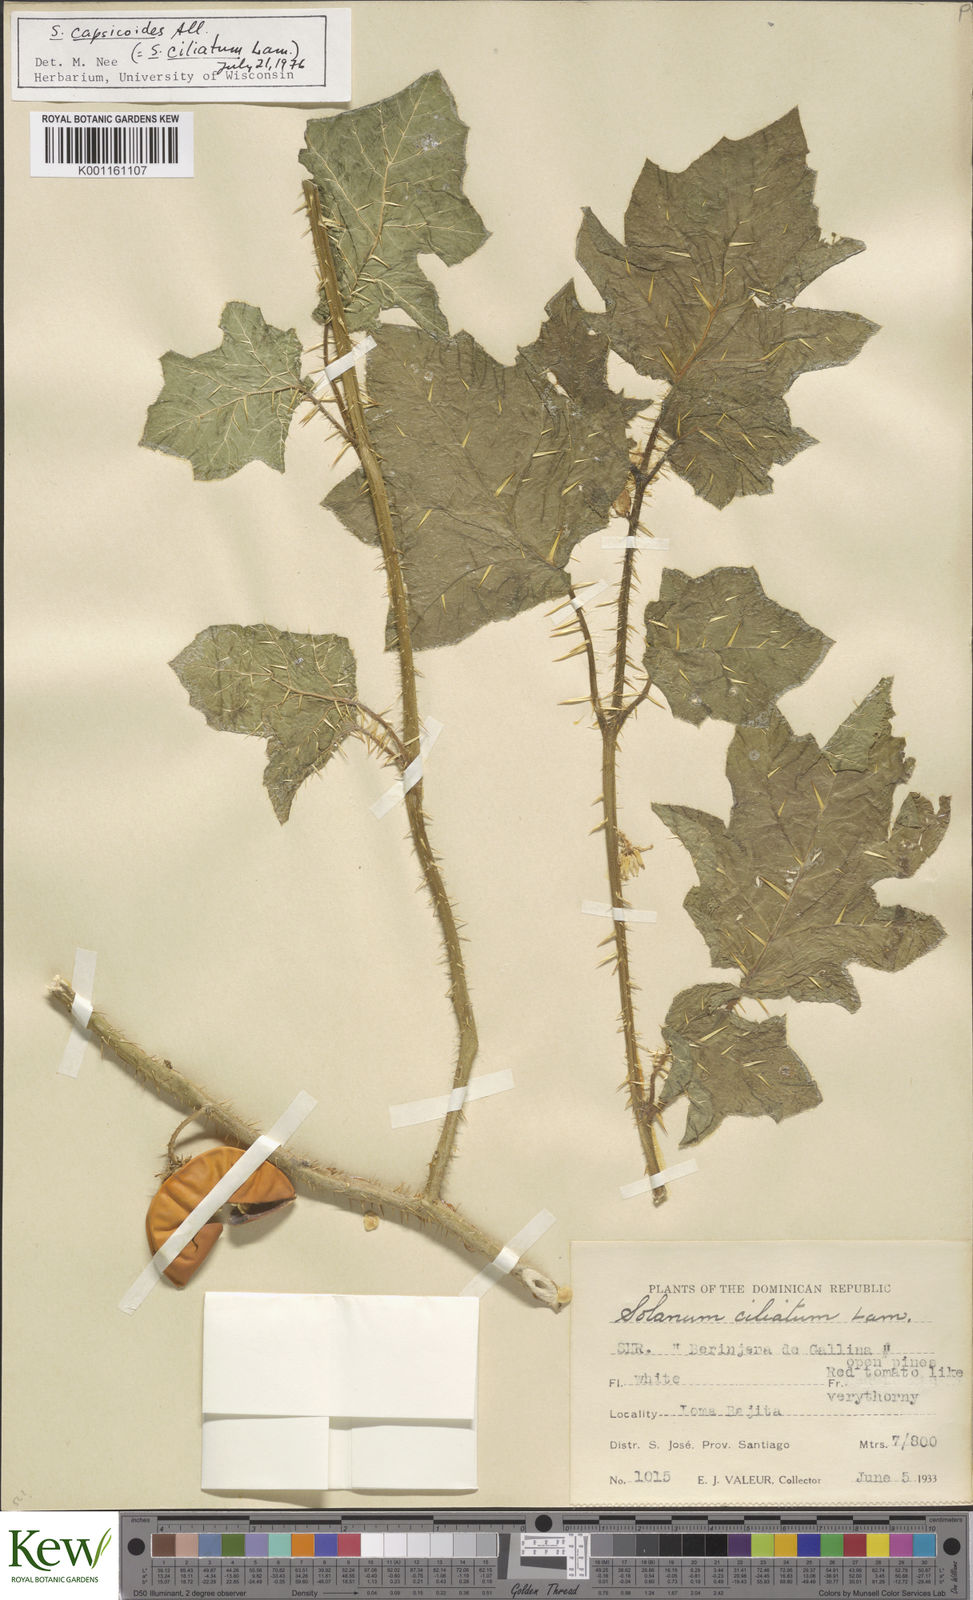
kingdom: Plantae
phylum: Tracheophyta
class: Magnoliopsida
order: Solanales
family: Solanaceae
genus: Solanum
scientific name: Solanum aculeatissimum
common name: Dutch eggplant
